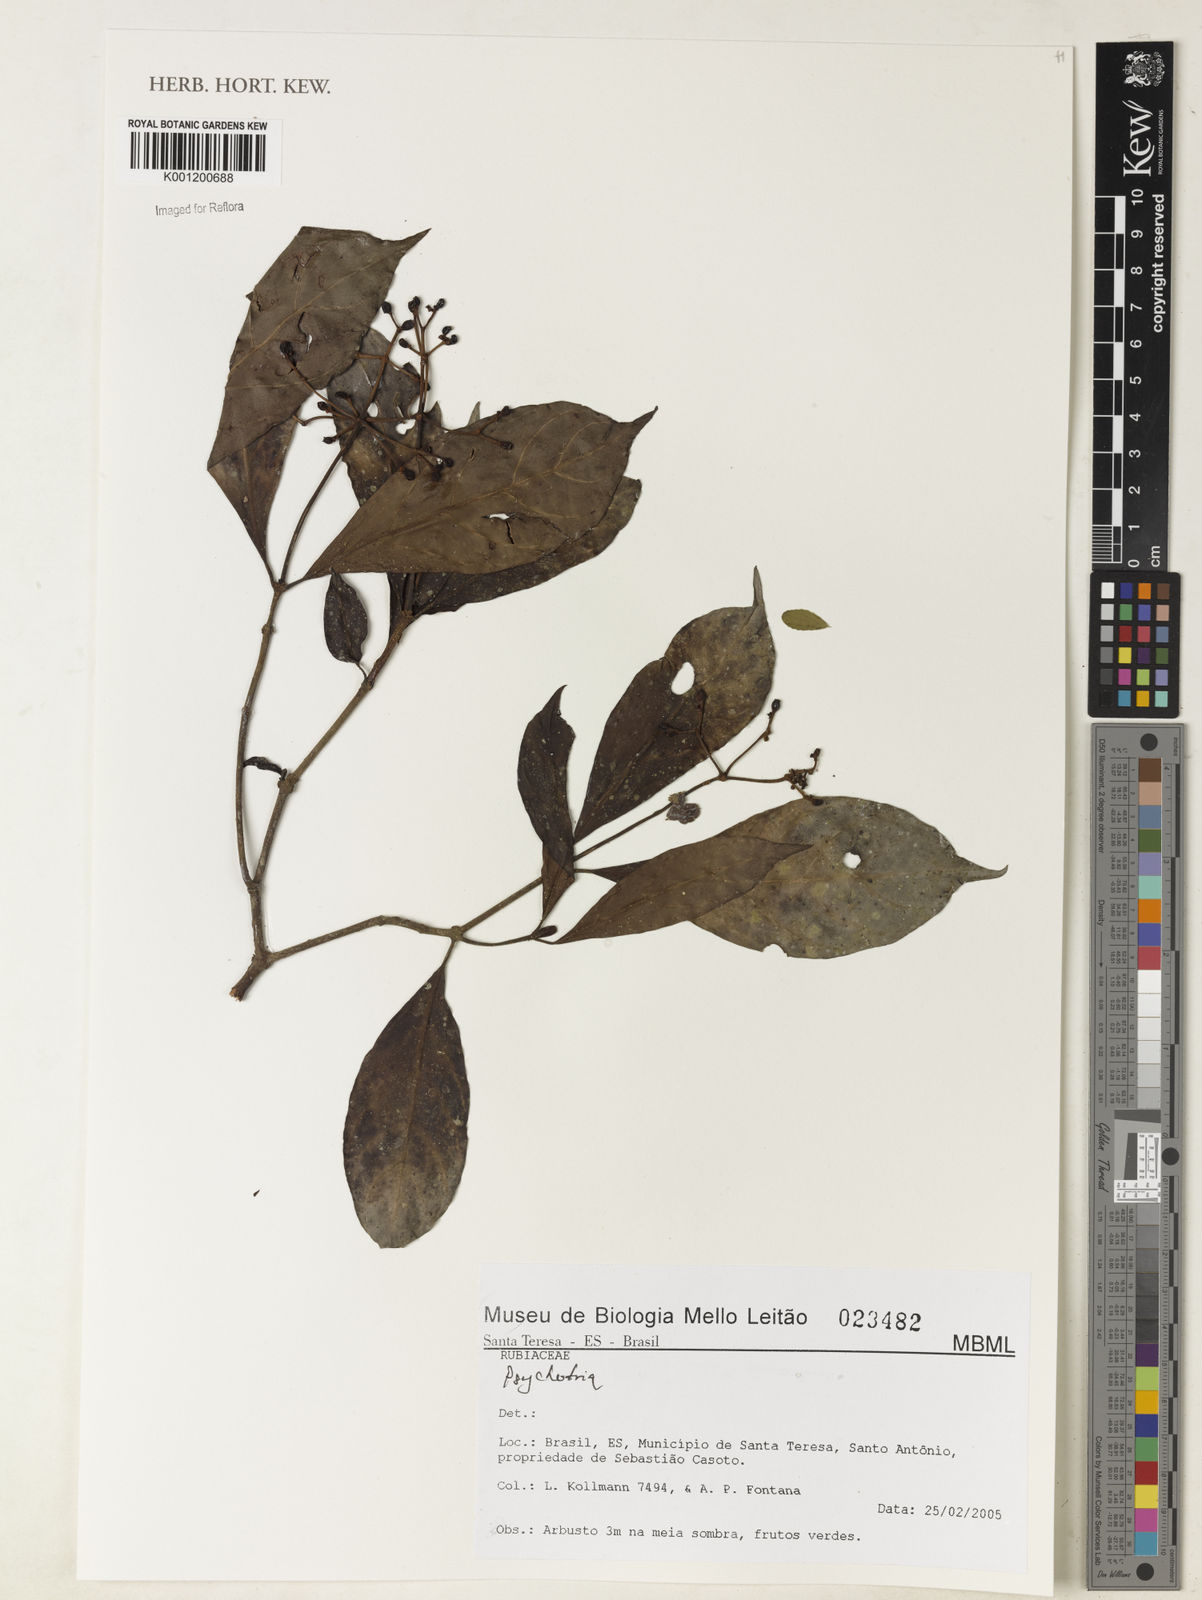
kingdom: Plantae
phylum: Tracheophyta
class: Magnoliopsida
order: Gentianales
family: Rubiaceae
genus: Psychotria
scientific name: Psychotria
